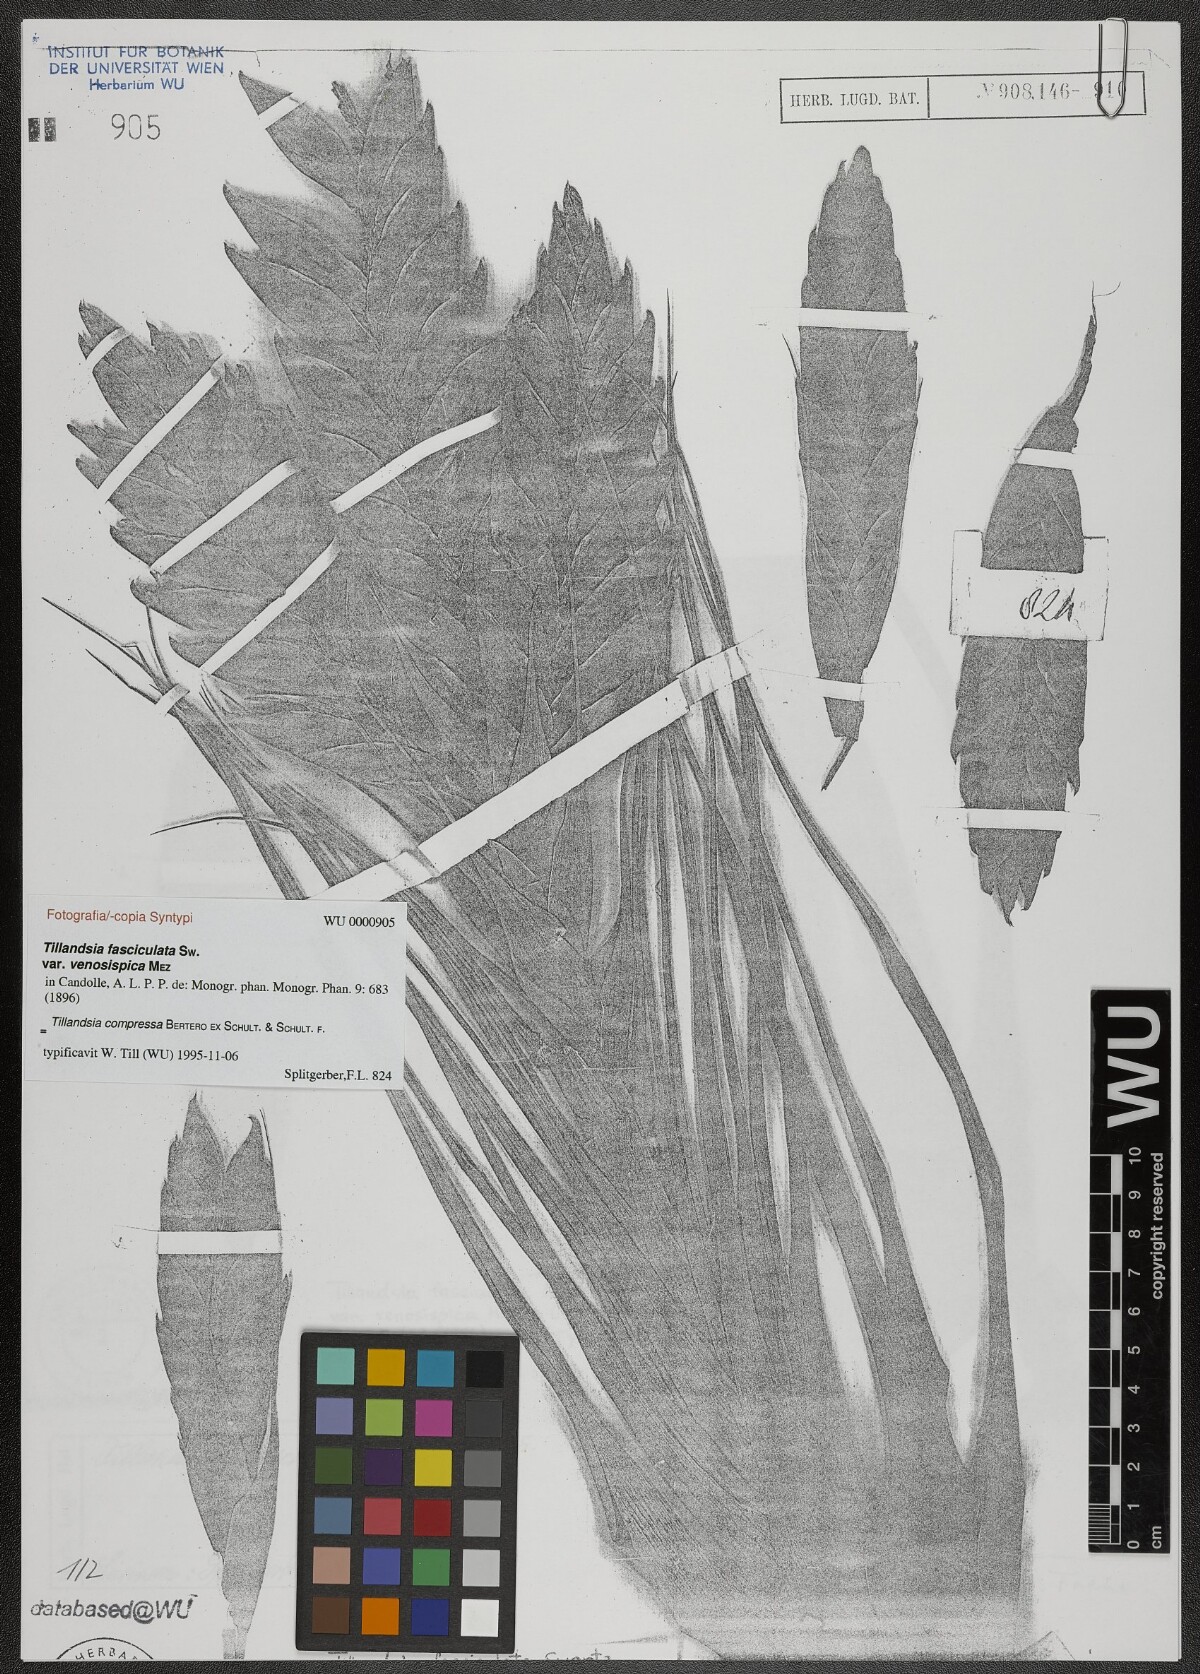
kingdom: Plantae
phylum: Tracheophyta
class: Liliopsida
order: Poales
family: Bromeliaceae
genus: Tillandsia
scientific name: Tillandsia compressa
